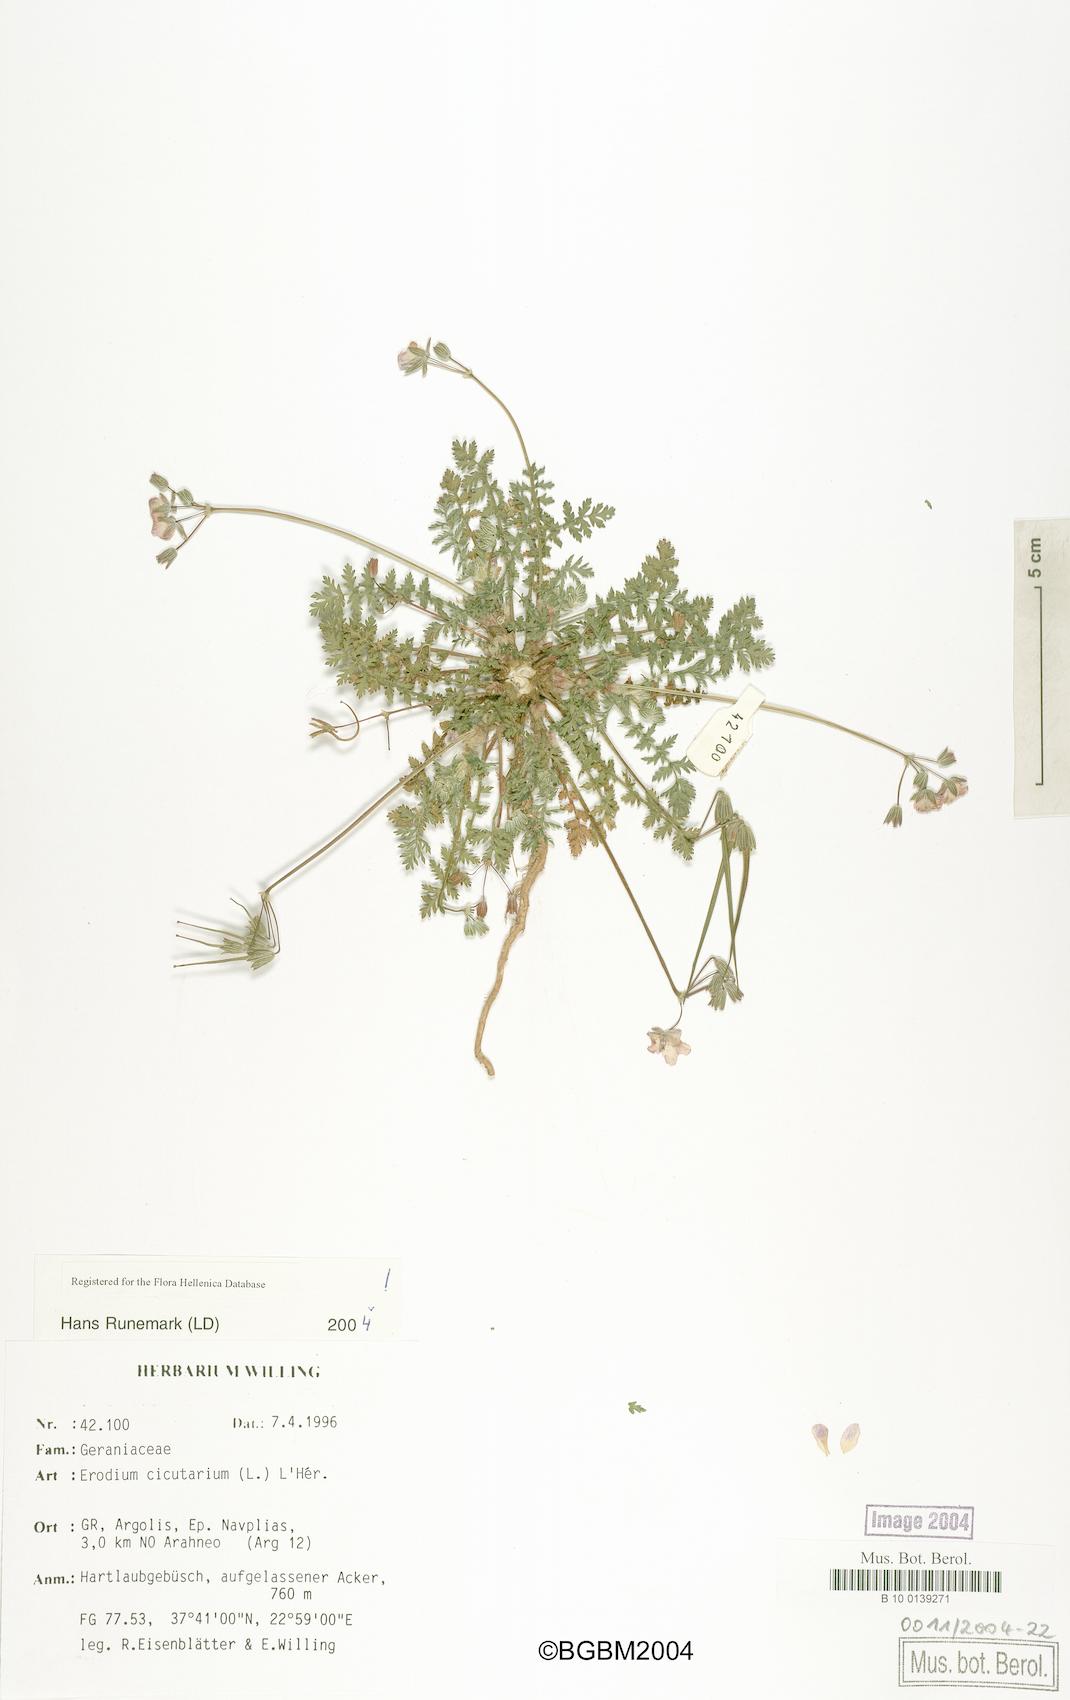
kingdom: Plantae
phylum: Tracheophyta
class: Magnoliopsida
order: Geraniales
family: Geraniaceae
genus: Erodium
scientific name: Erodium cicutarium
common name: Common stork's-bill
